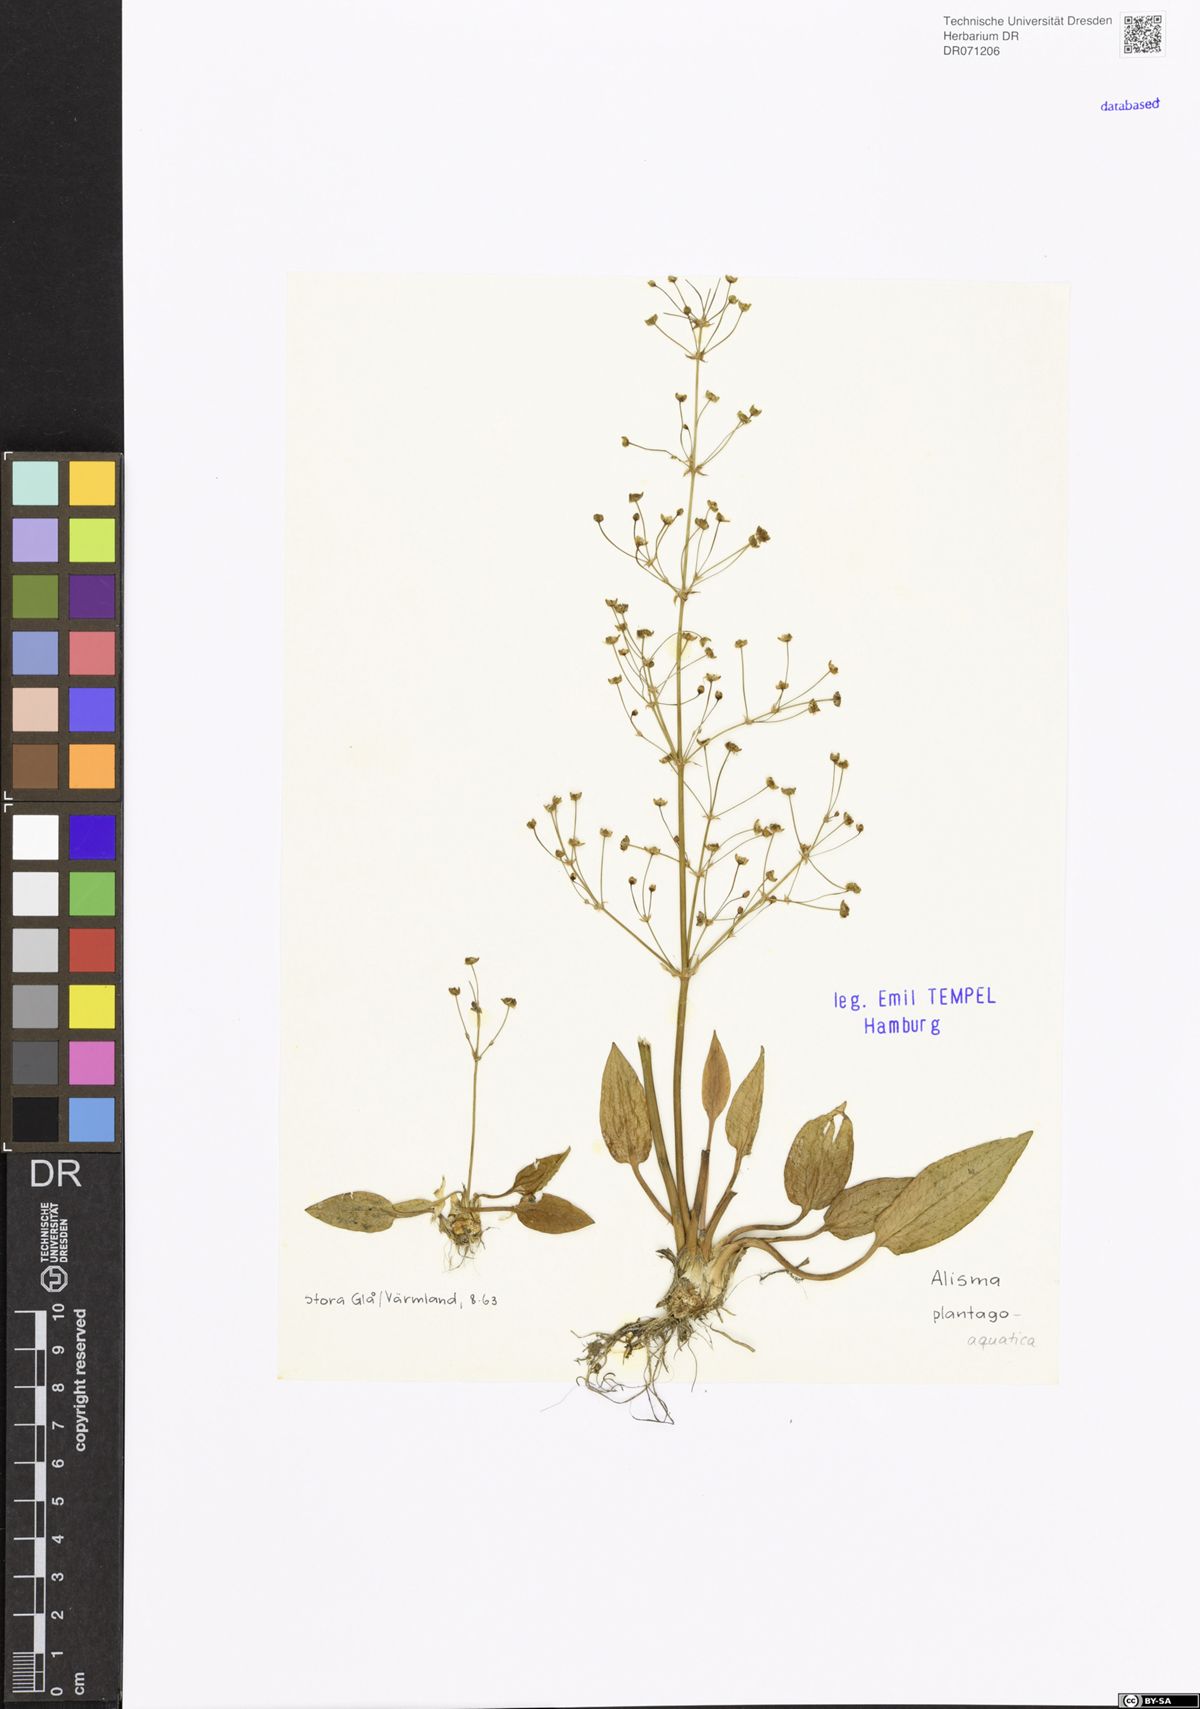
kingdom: Plantae
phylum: Tracheophyta
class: Liliopsida
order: Alismatales
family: Alismataceae
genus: Alisma
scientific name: Alisma plantago-aquatica
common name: Water-plantain
